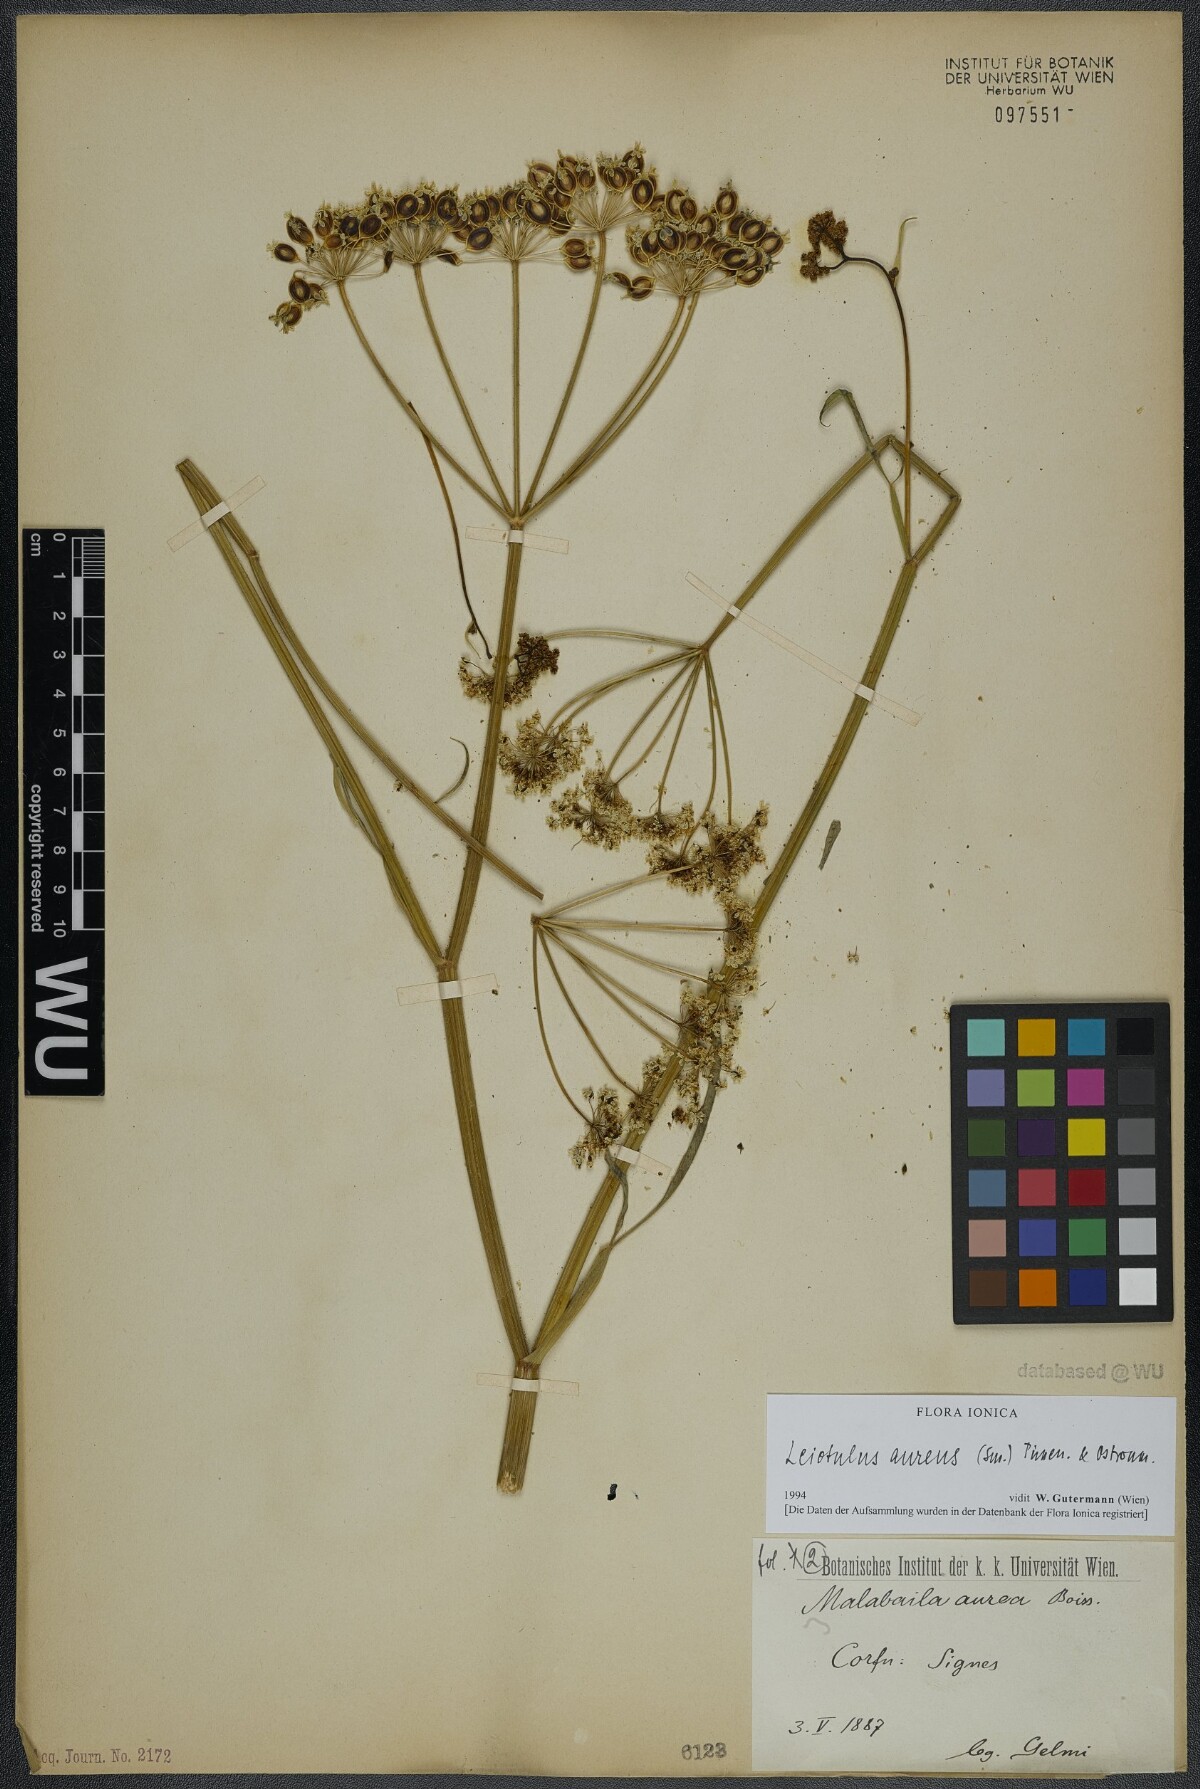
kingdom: Plantae
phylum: Tracheophyta
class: Magnoliopsida
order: Apiales
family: Apiaceae
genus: Leiotulus
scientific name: Leiotulus aureus
